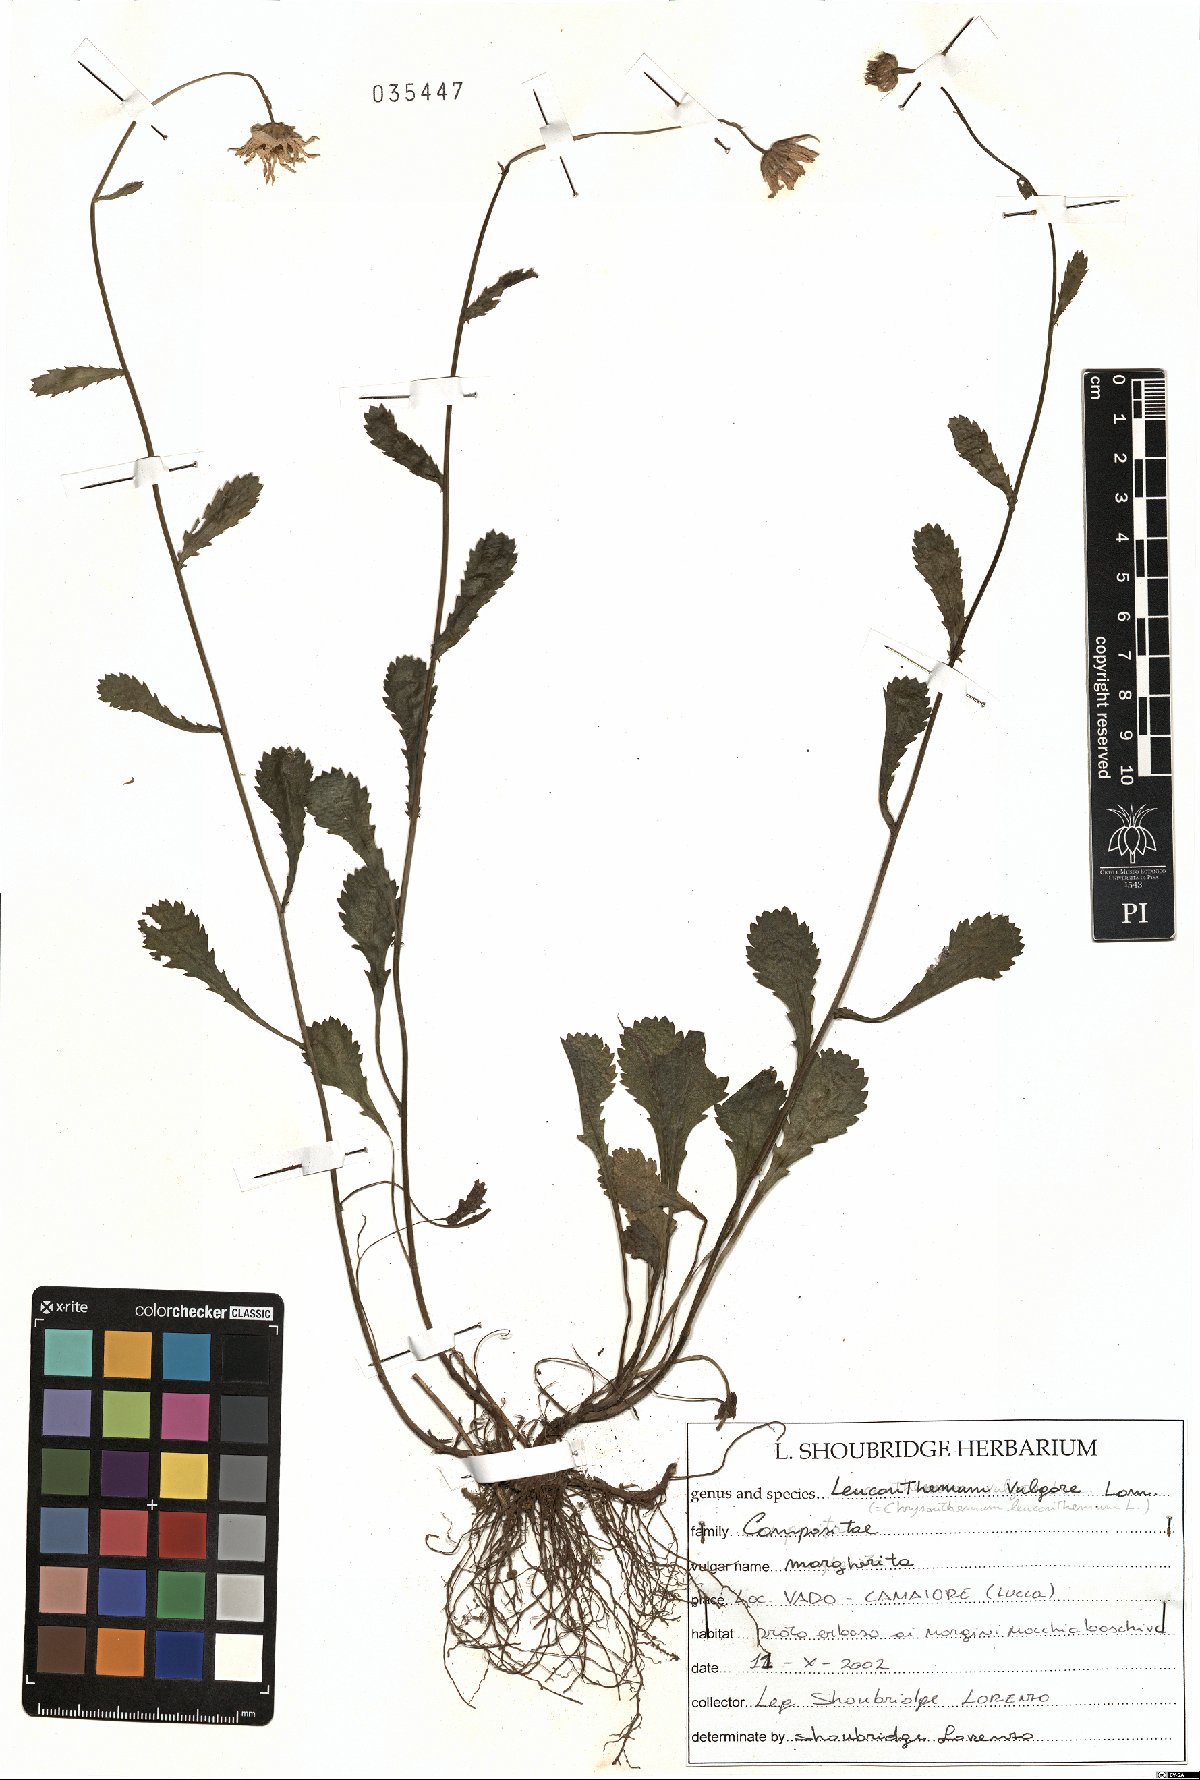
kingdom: Plantae
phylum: Tracheophyta
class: Magnoliopsida
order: Asterales
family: Asteraceae
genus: Leucanthemum
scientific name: Leucanthemum vulgare
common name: Oxeye daisy
